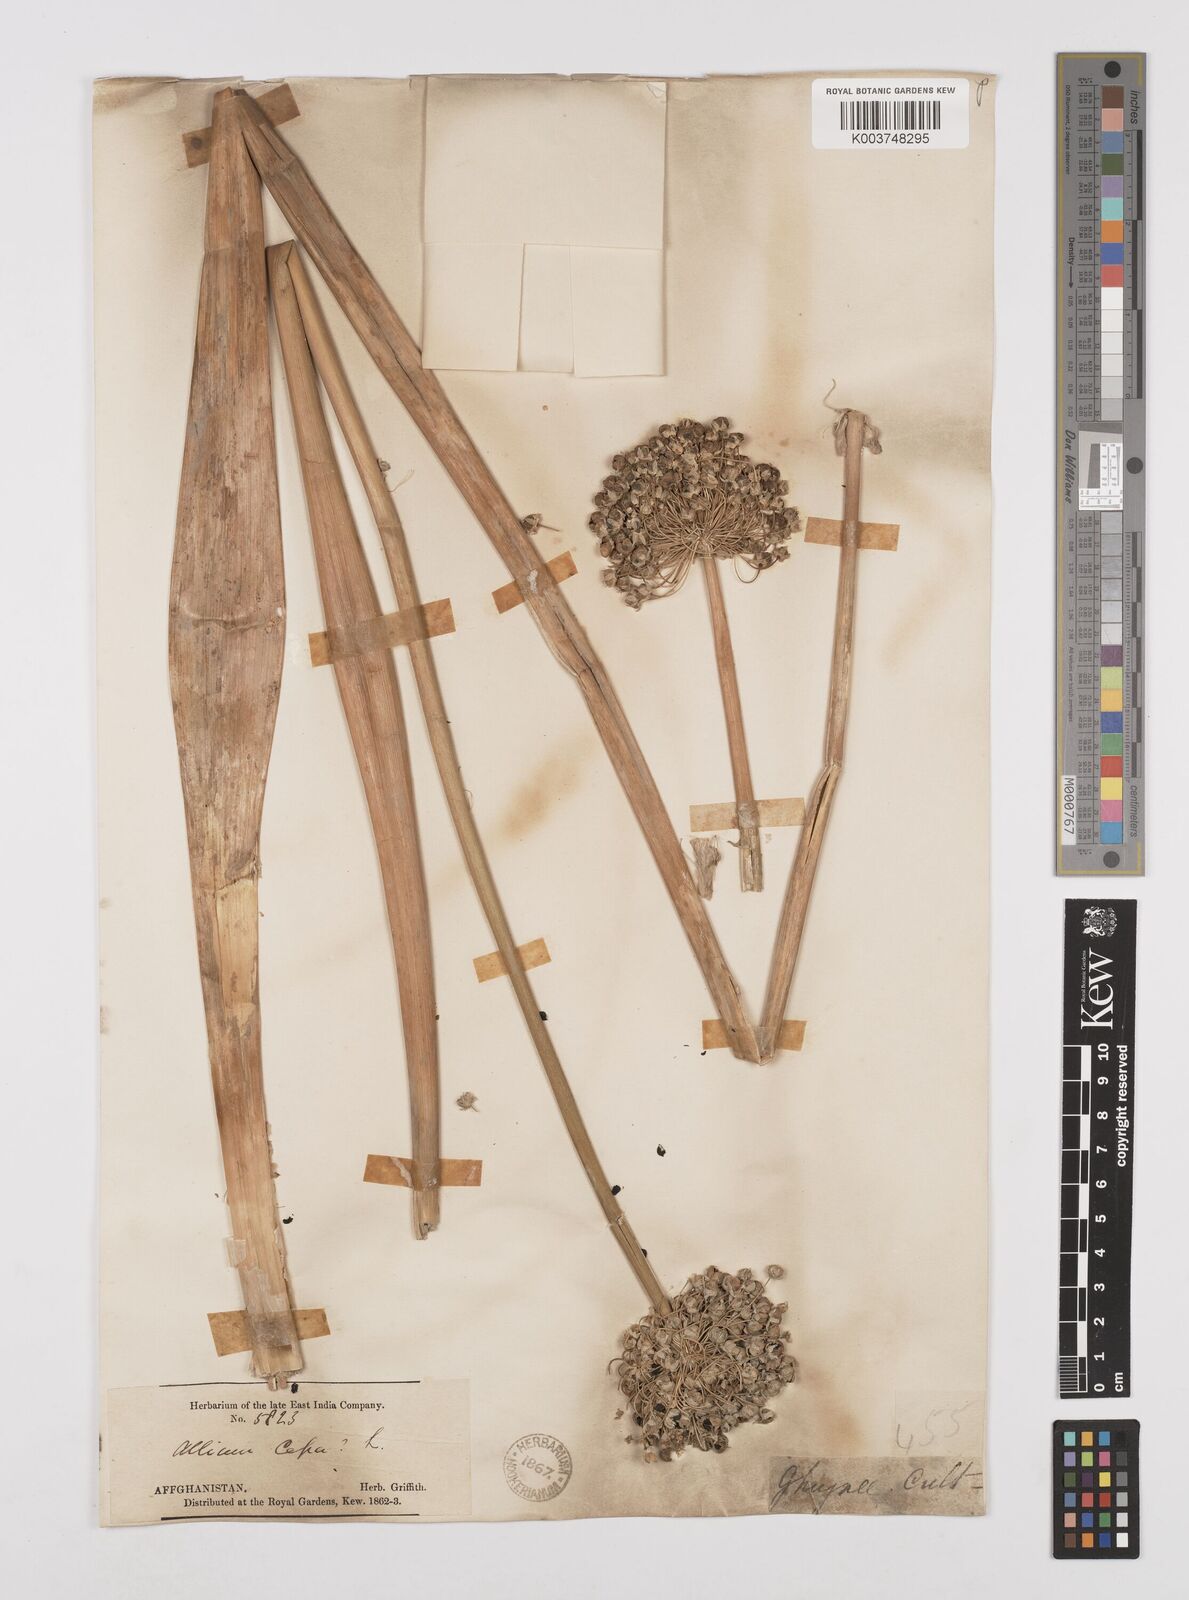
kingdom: Plantae
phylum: Tracheophyta
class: Liliopsida
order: Asparagales
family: Amaryllidaceae
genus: Allium
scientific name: Allium
